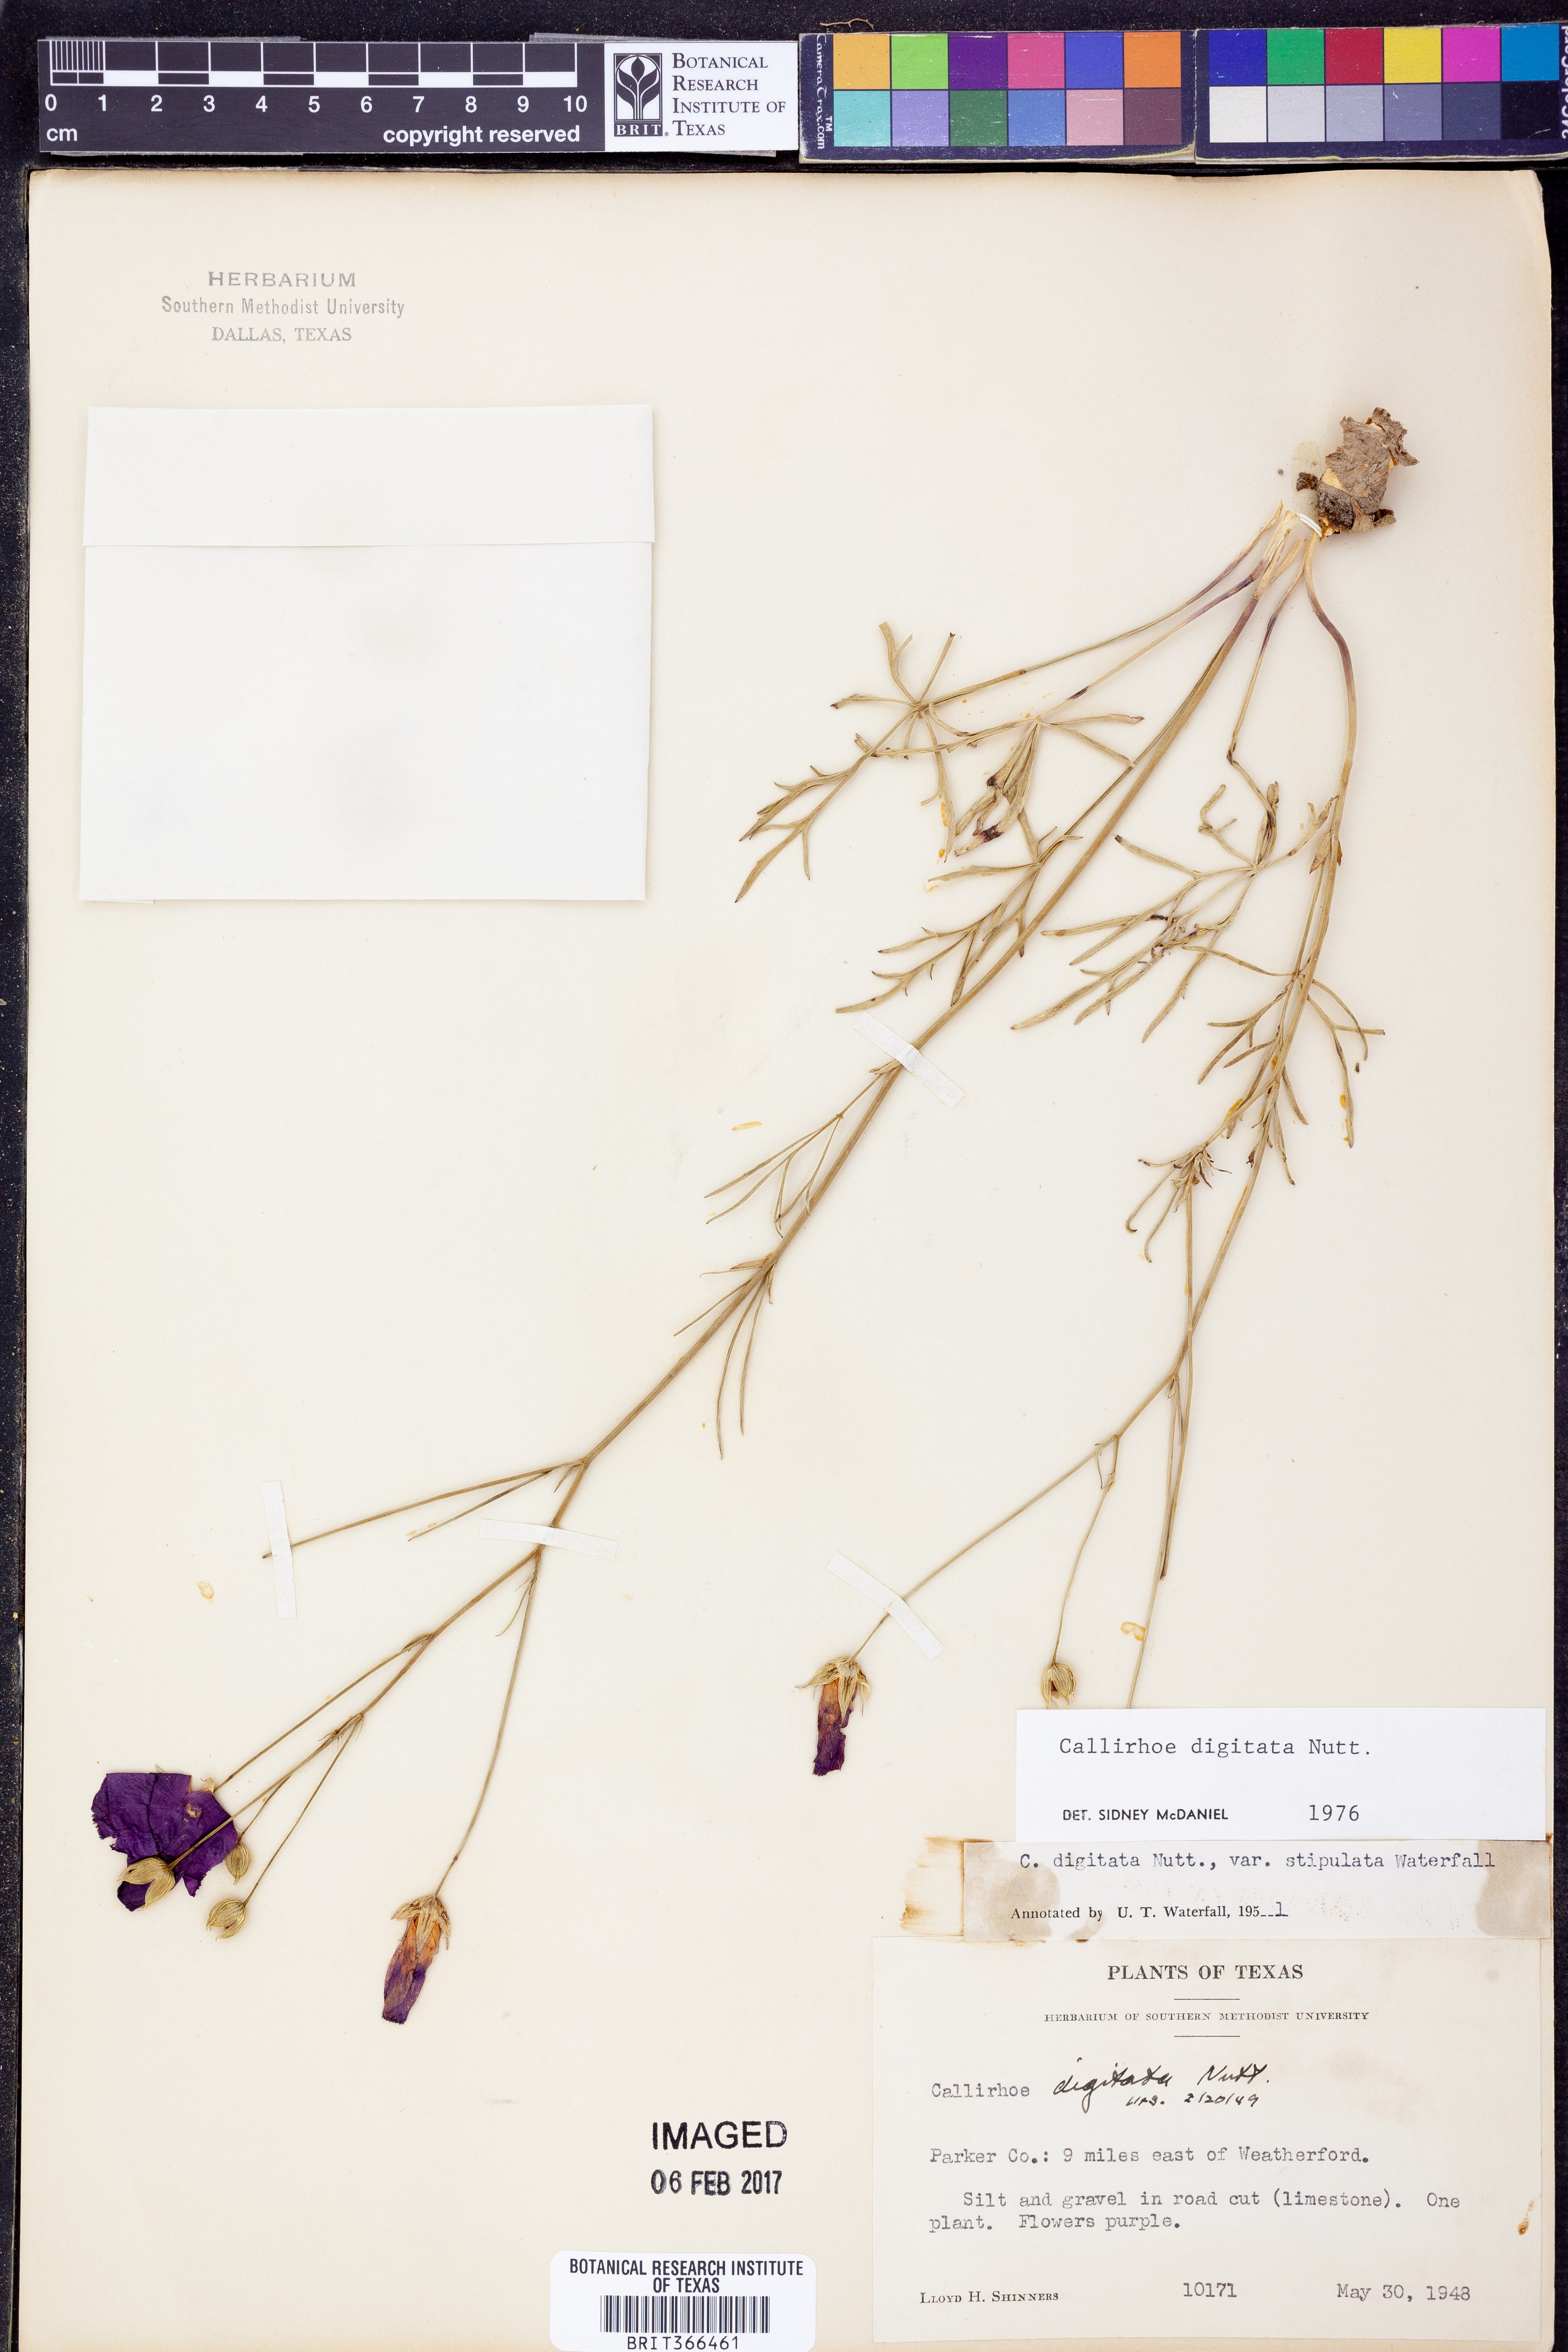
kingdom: Plantae
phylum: Tracheophyta
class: Magnoliopsida
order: Malvales
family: Malvaceae
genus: Callirhoe
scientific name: Callirhoe digitata
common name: Finger poppy-mallow
